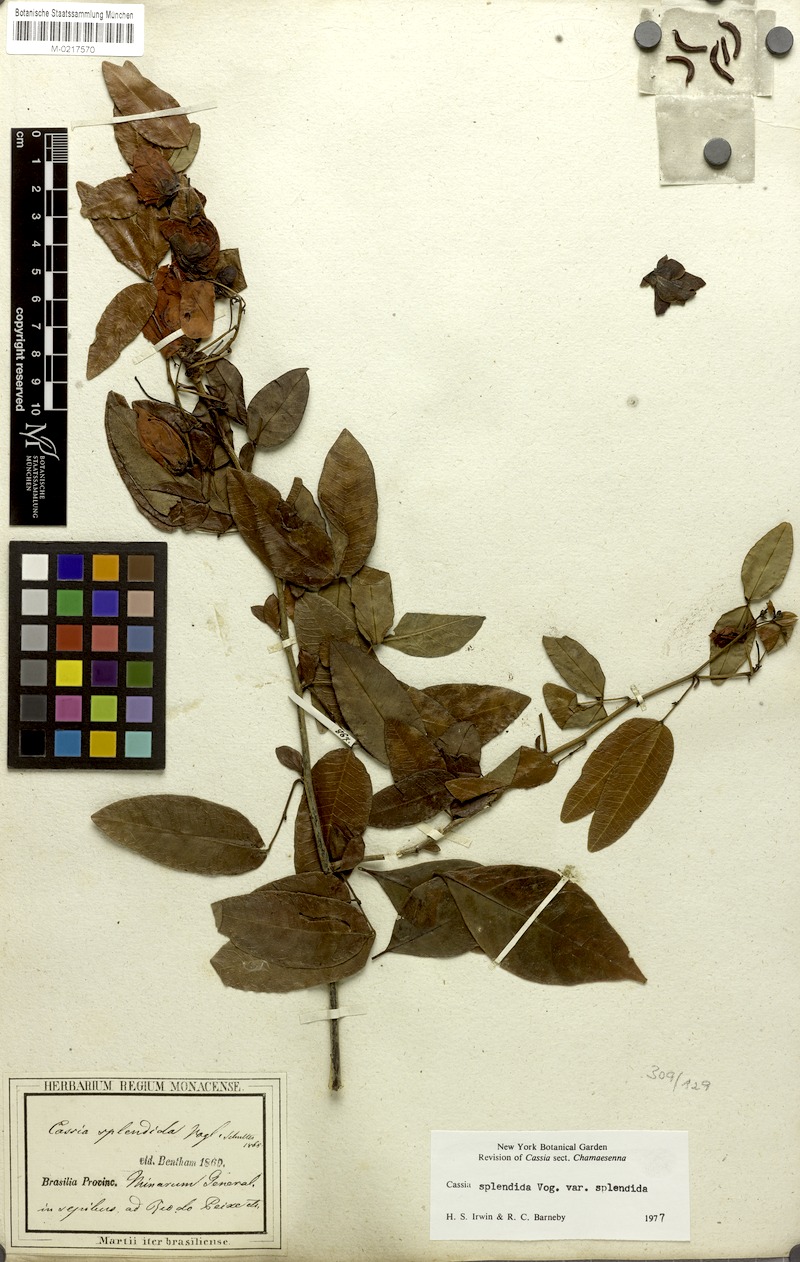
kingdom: Plantae
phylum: Tracheophyta
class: Magnoliopsida
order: Fabales
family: Fabaceae
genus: Senna
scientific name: Senna splendida
